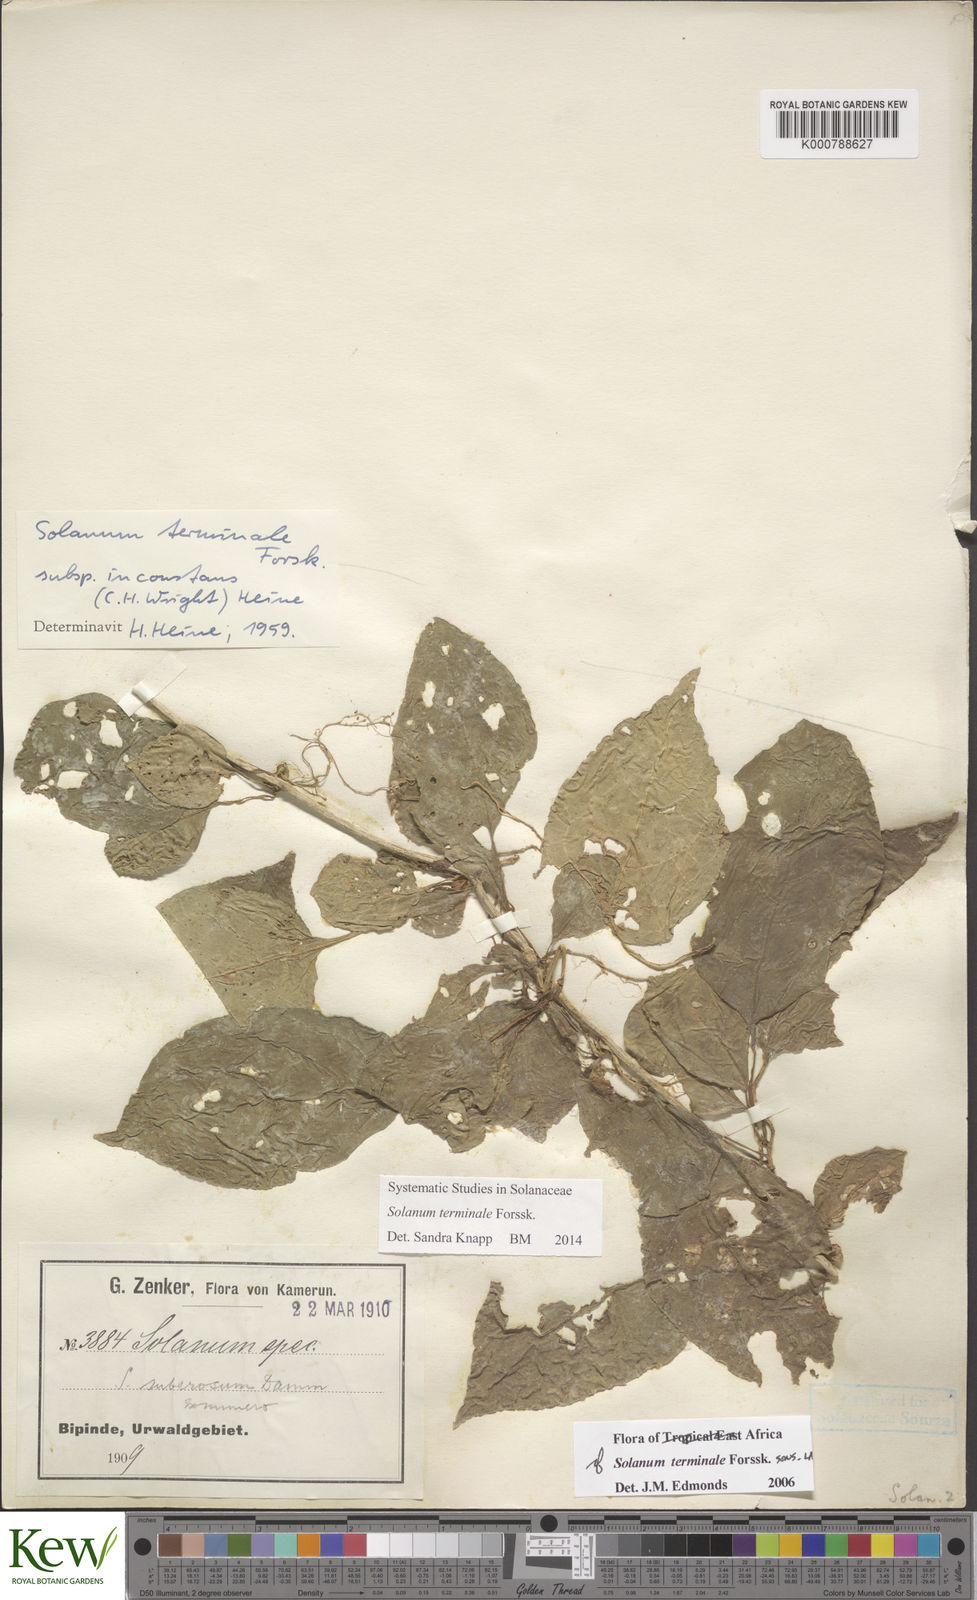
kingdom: Plantae
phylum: Tracheophyta
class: Magnoliopsida
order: Solanales
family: Solanaceae
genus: Solanum
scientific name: Solanum terminale
